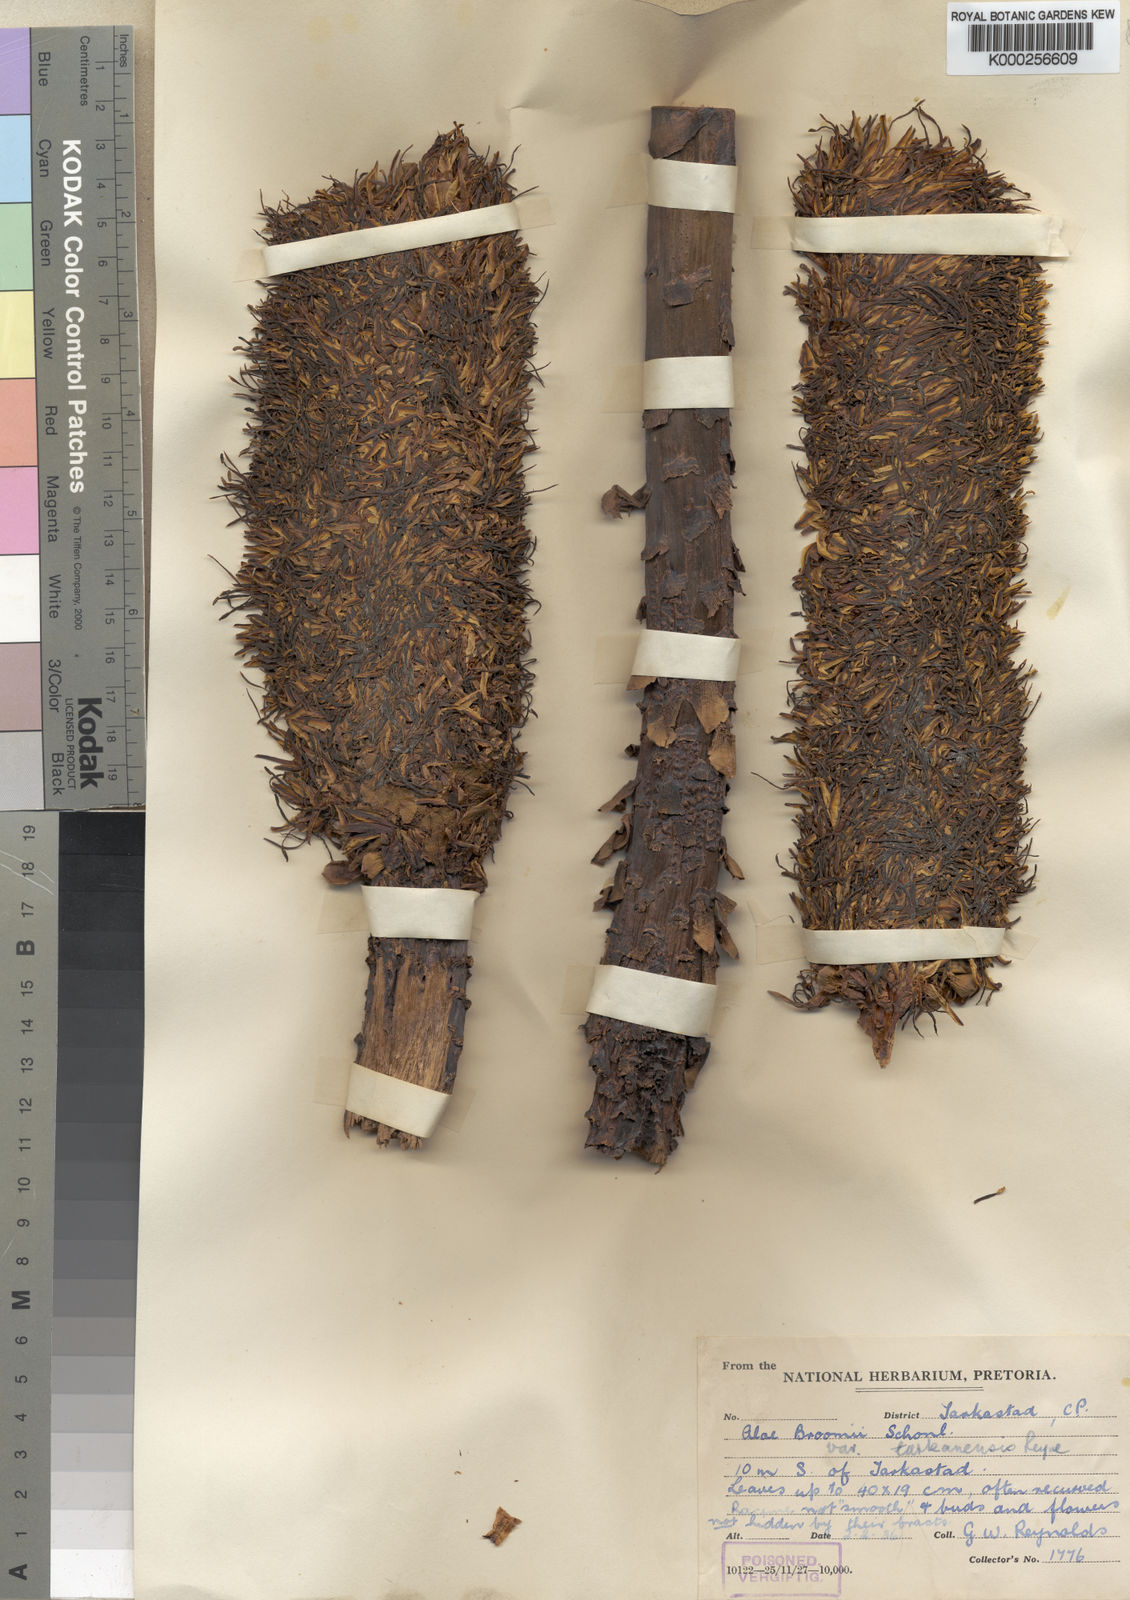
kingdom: Plantae
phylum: Tracheophyta
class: Liliopsida
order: Asparagales
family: Asphodelaceae
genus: Aloe
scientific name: Aloe
